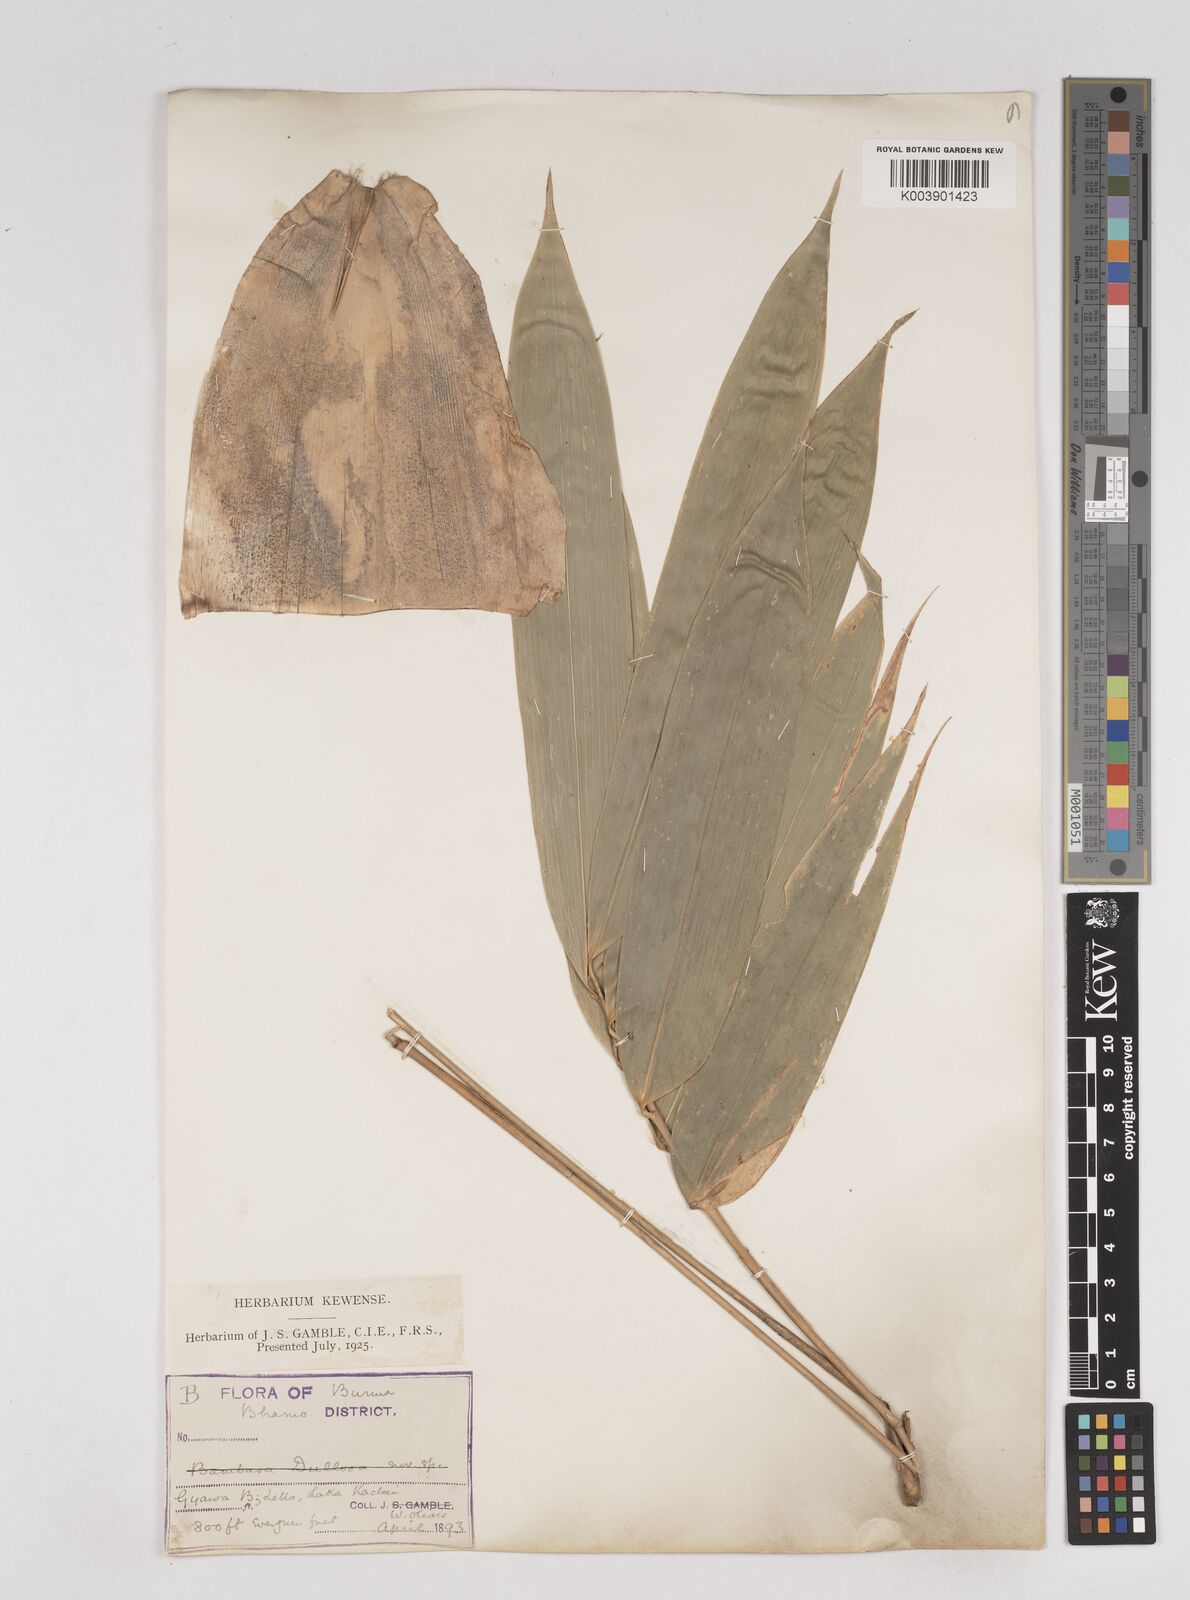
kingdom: Plantae
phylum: Tracheophyta
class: Liliopsida
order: Poales
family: Poaceae
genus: Schizostachyum
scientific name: Schizostachyum tavoyanum
